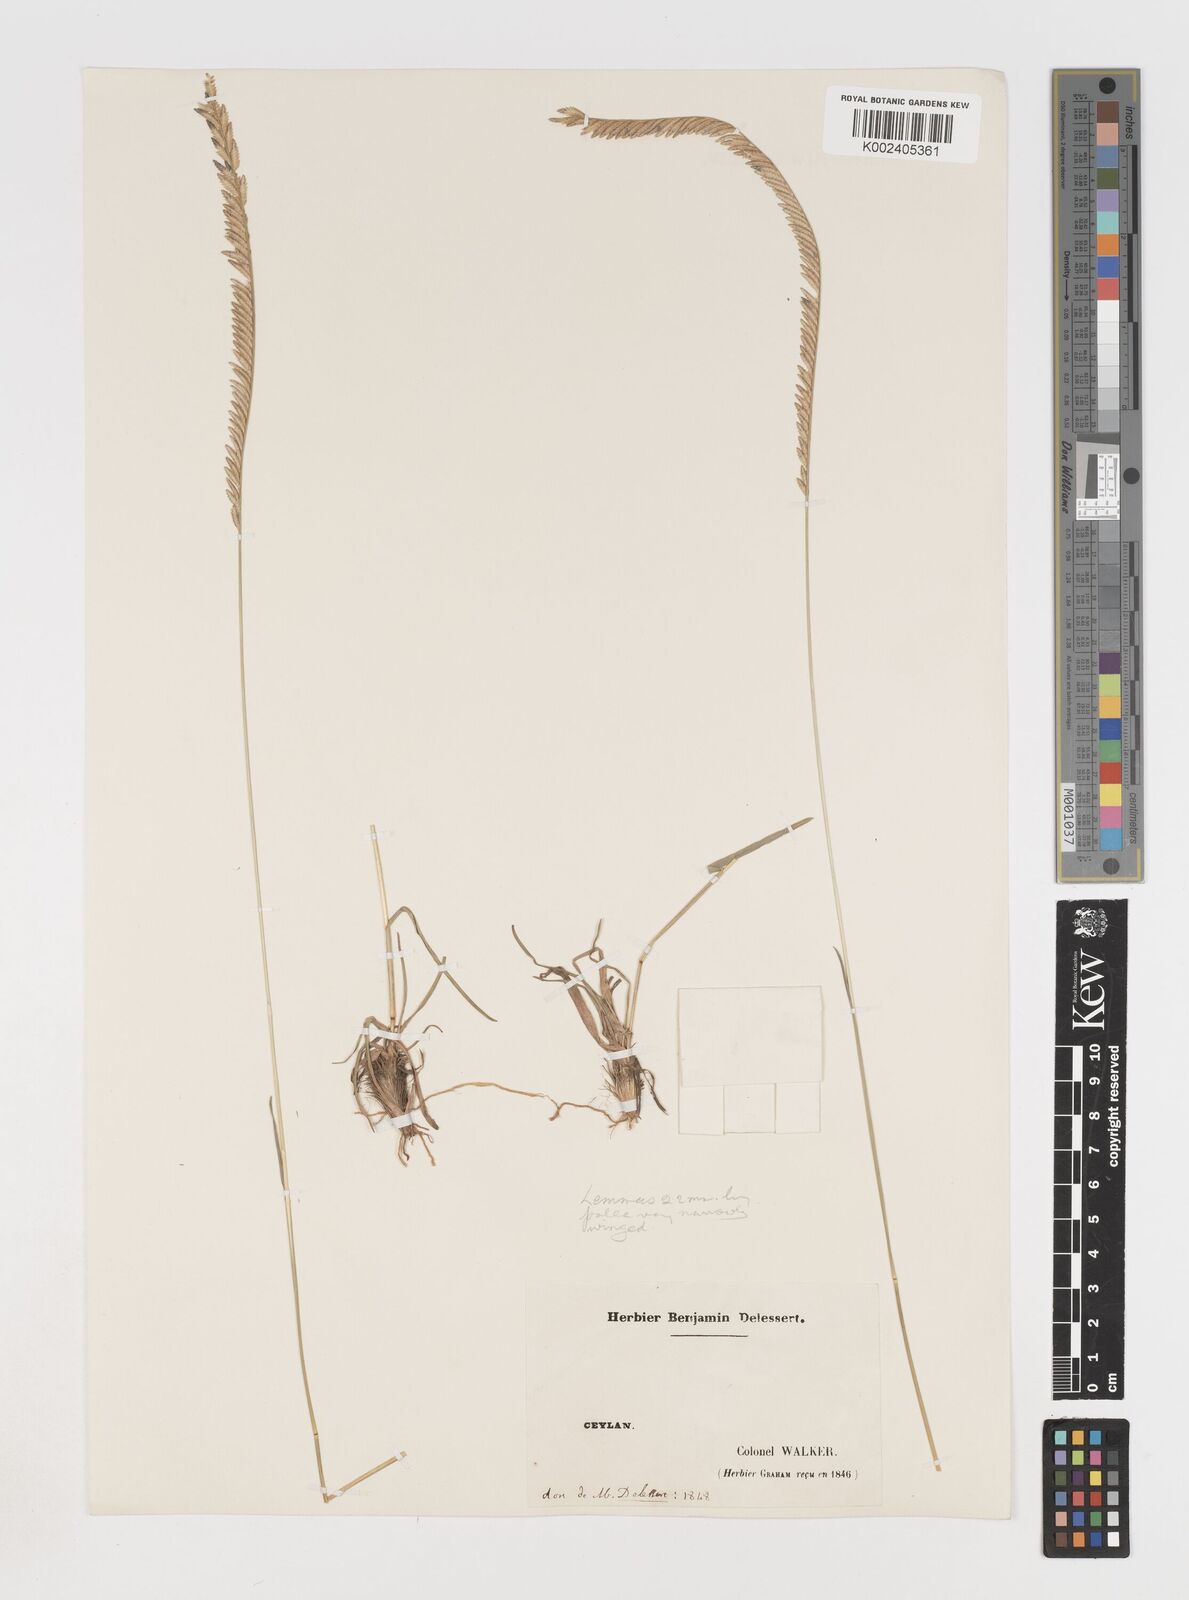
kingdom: Plantae
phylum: Tracheophyta
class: Liliopsida
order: Poales
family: Poaceae
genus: Eragrostiella
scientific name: Eragrostiella bifaria
